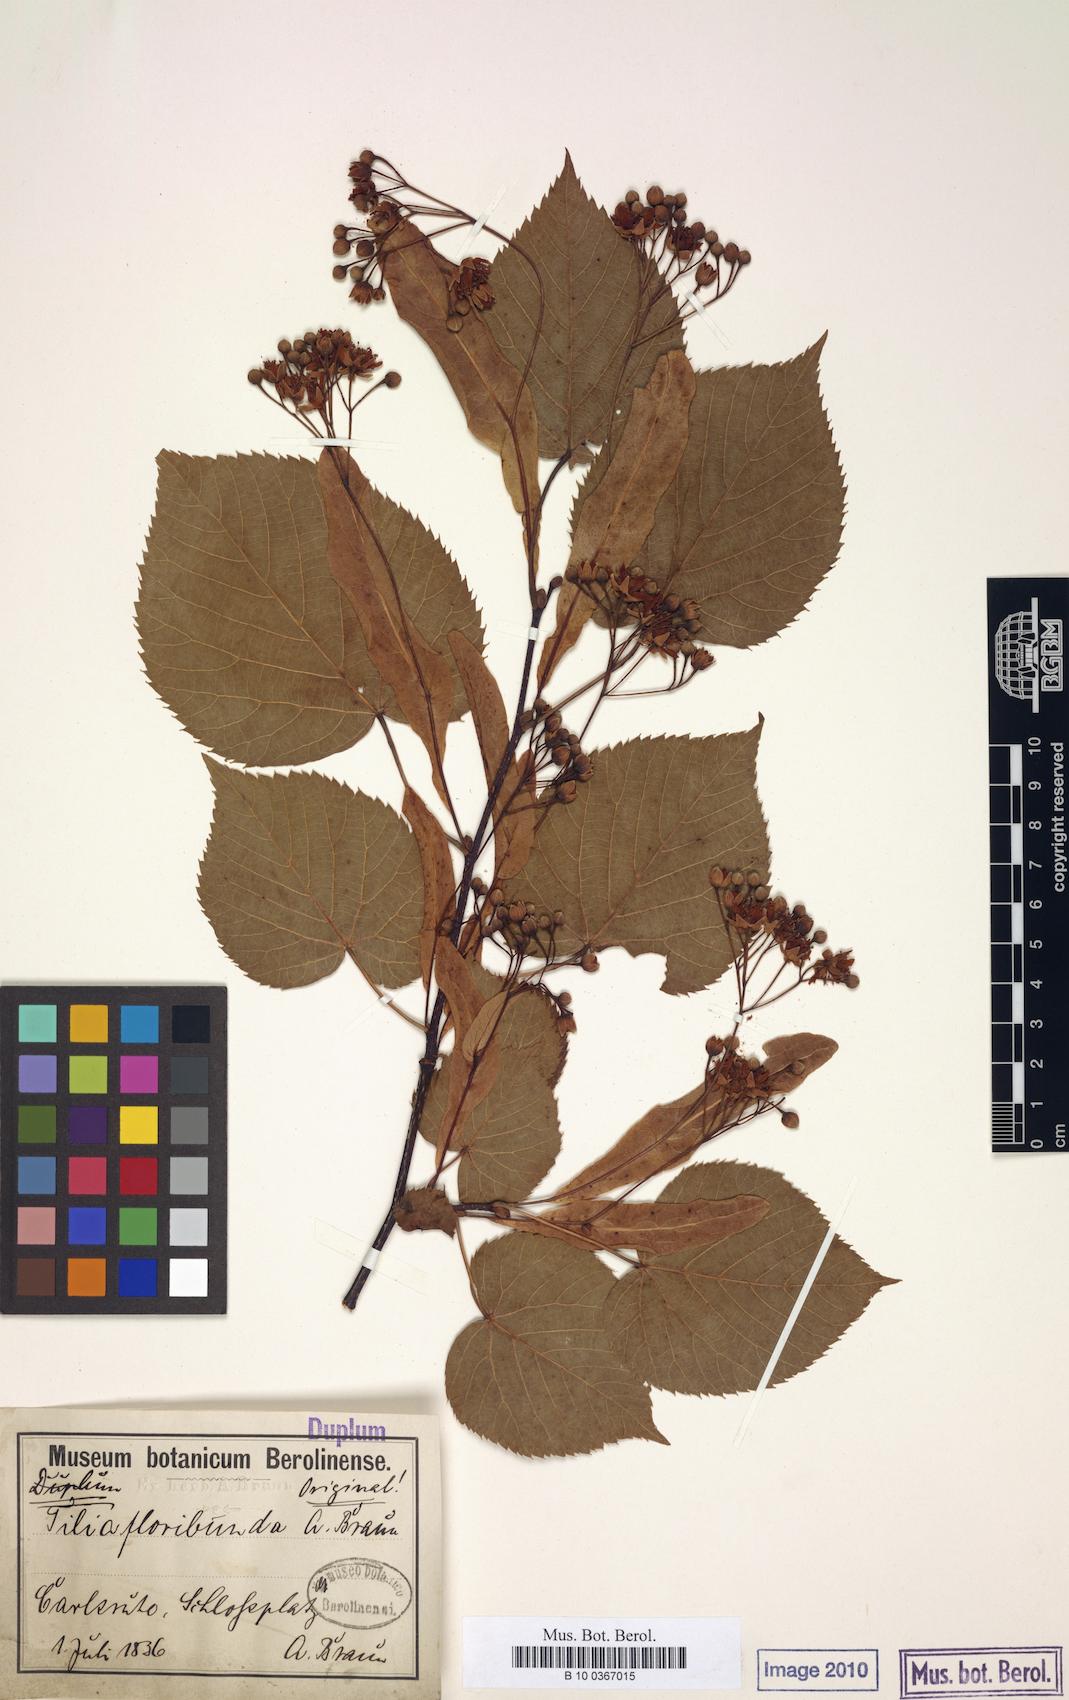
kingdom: Plantae
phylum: Tracheophyta
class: Magnoliopsida
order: Malvales
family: Malvaceae
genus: Tilia
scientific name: Tilia flavescens
